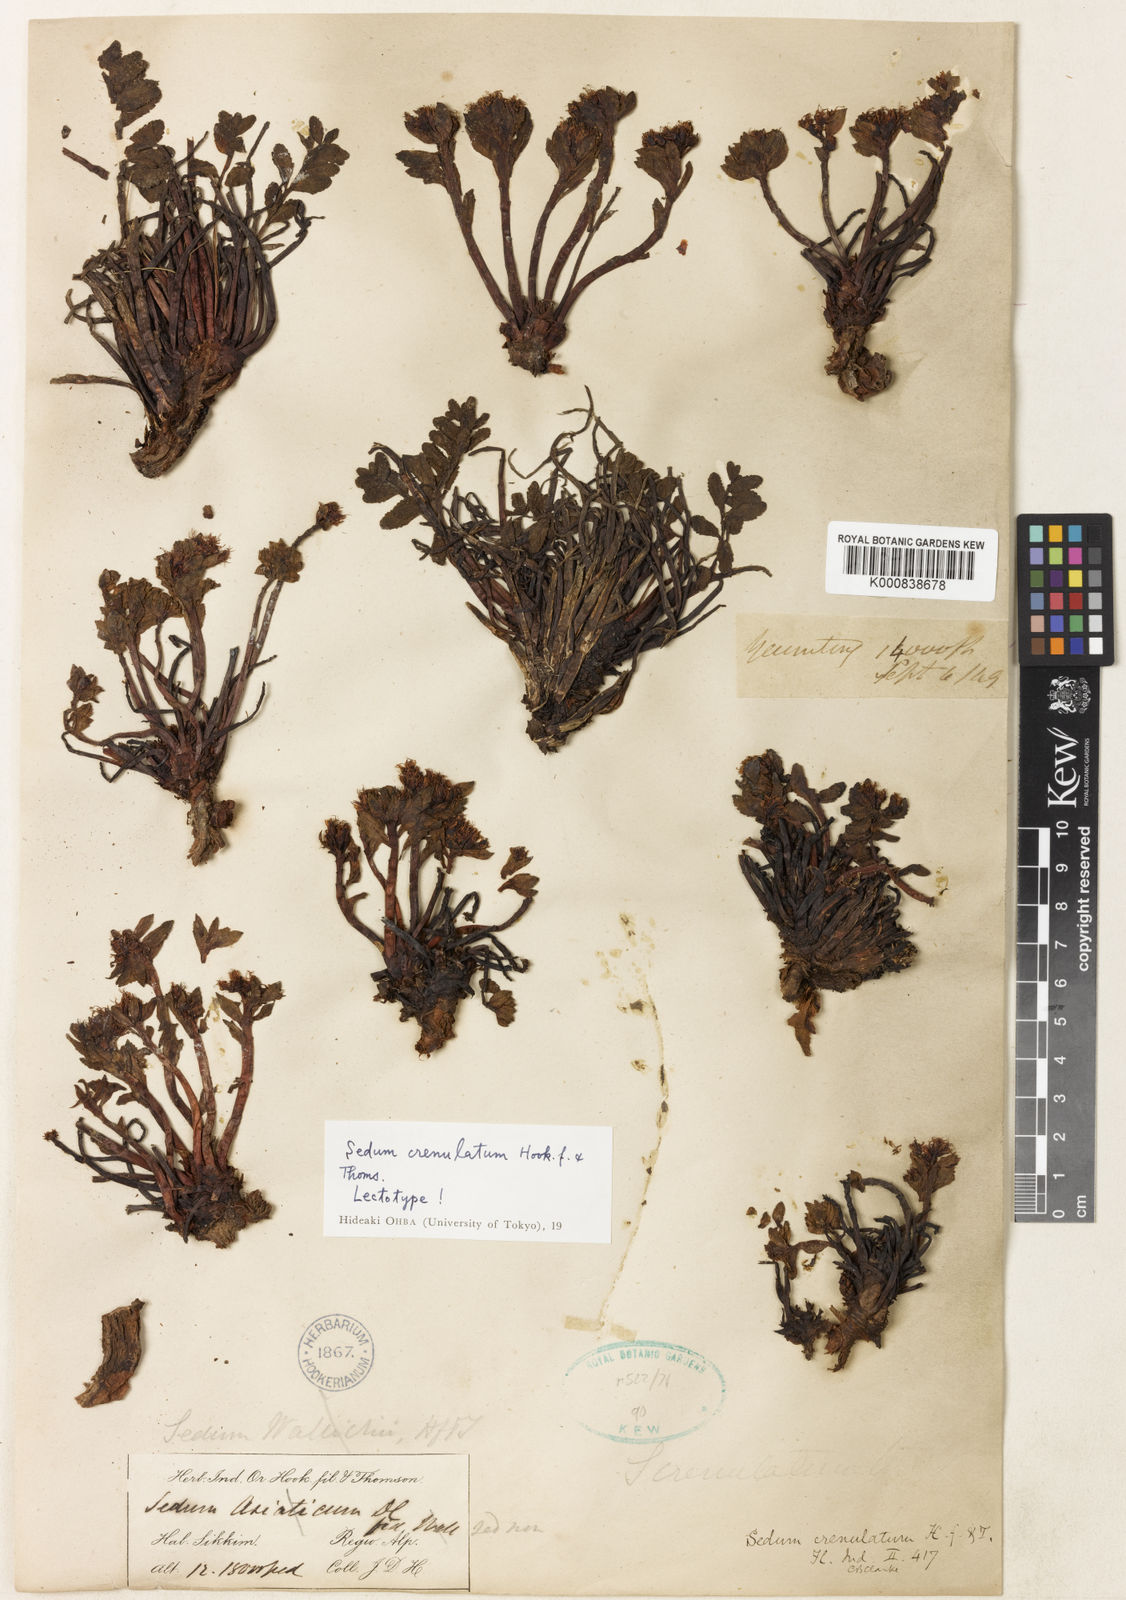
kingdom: Plantae
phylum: Tracheophyta
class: Magnoliopsida
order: Saxifragales
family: Crassulaceae
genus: Rhodiola
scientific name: Rhodiola crenulata
